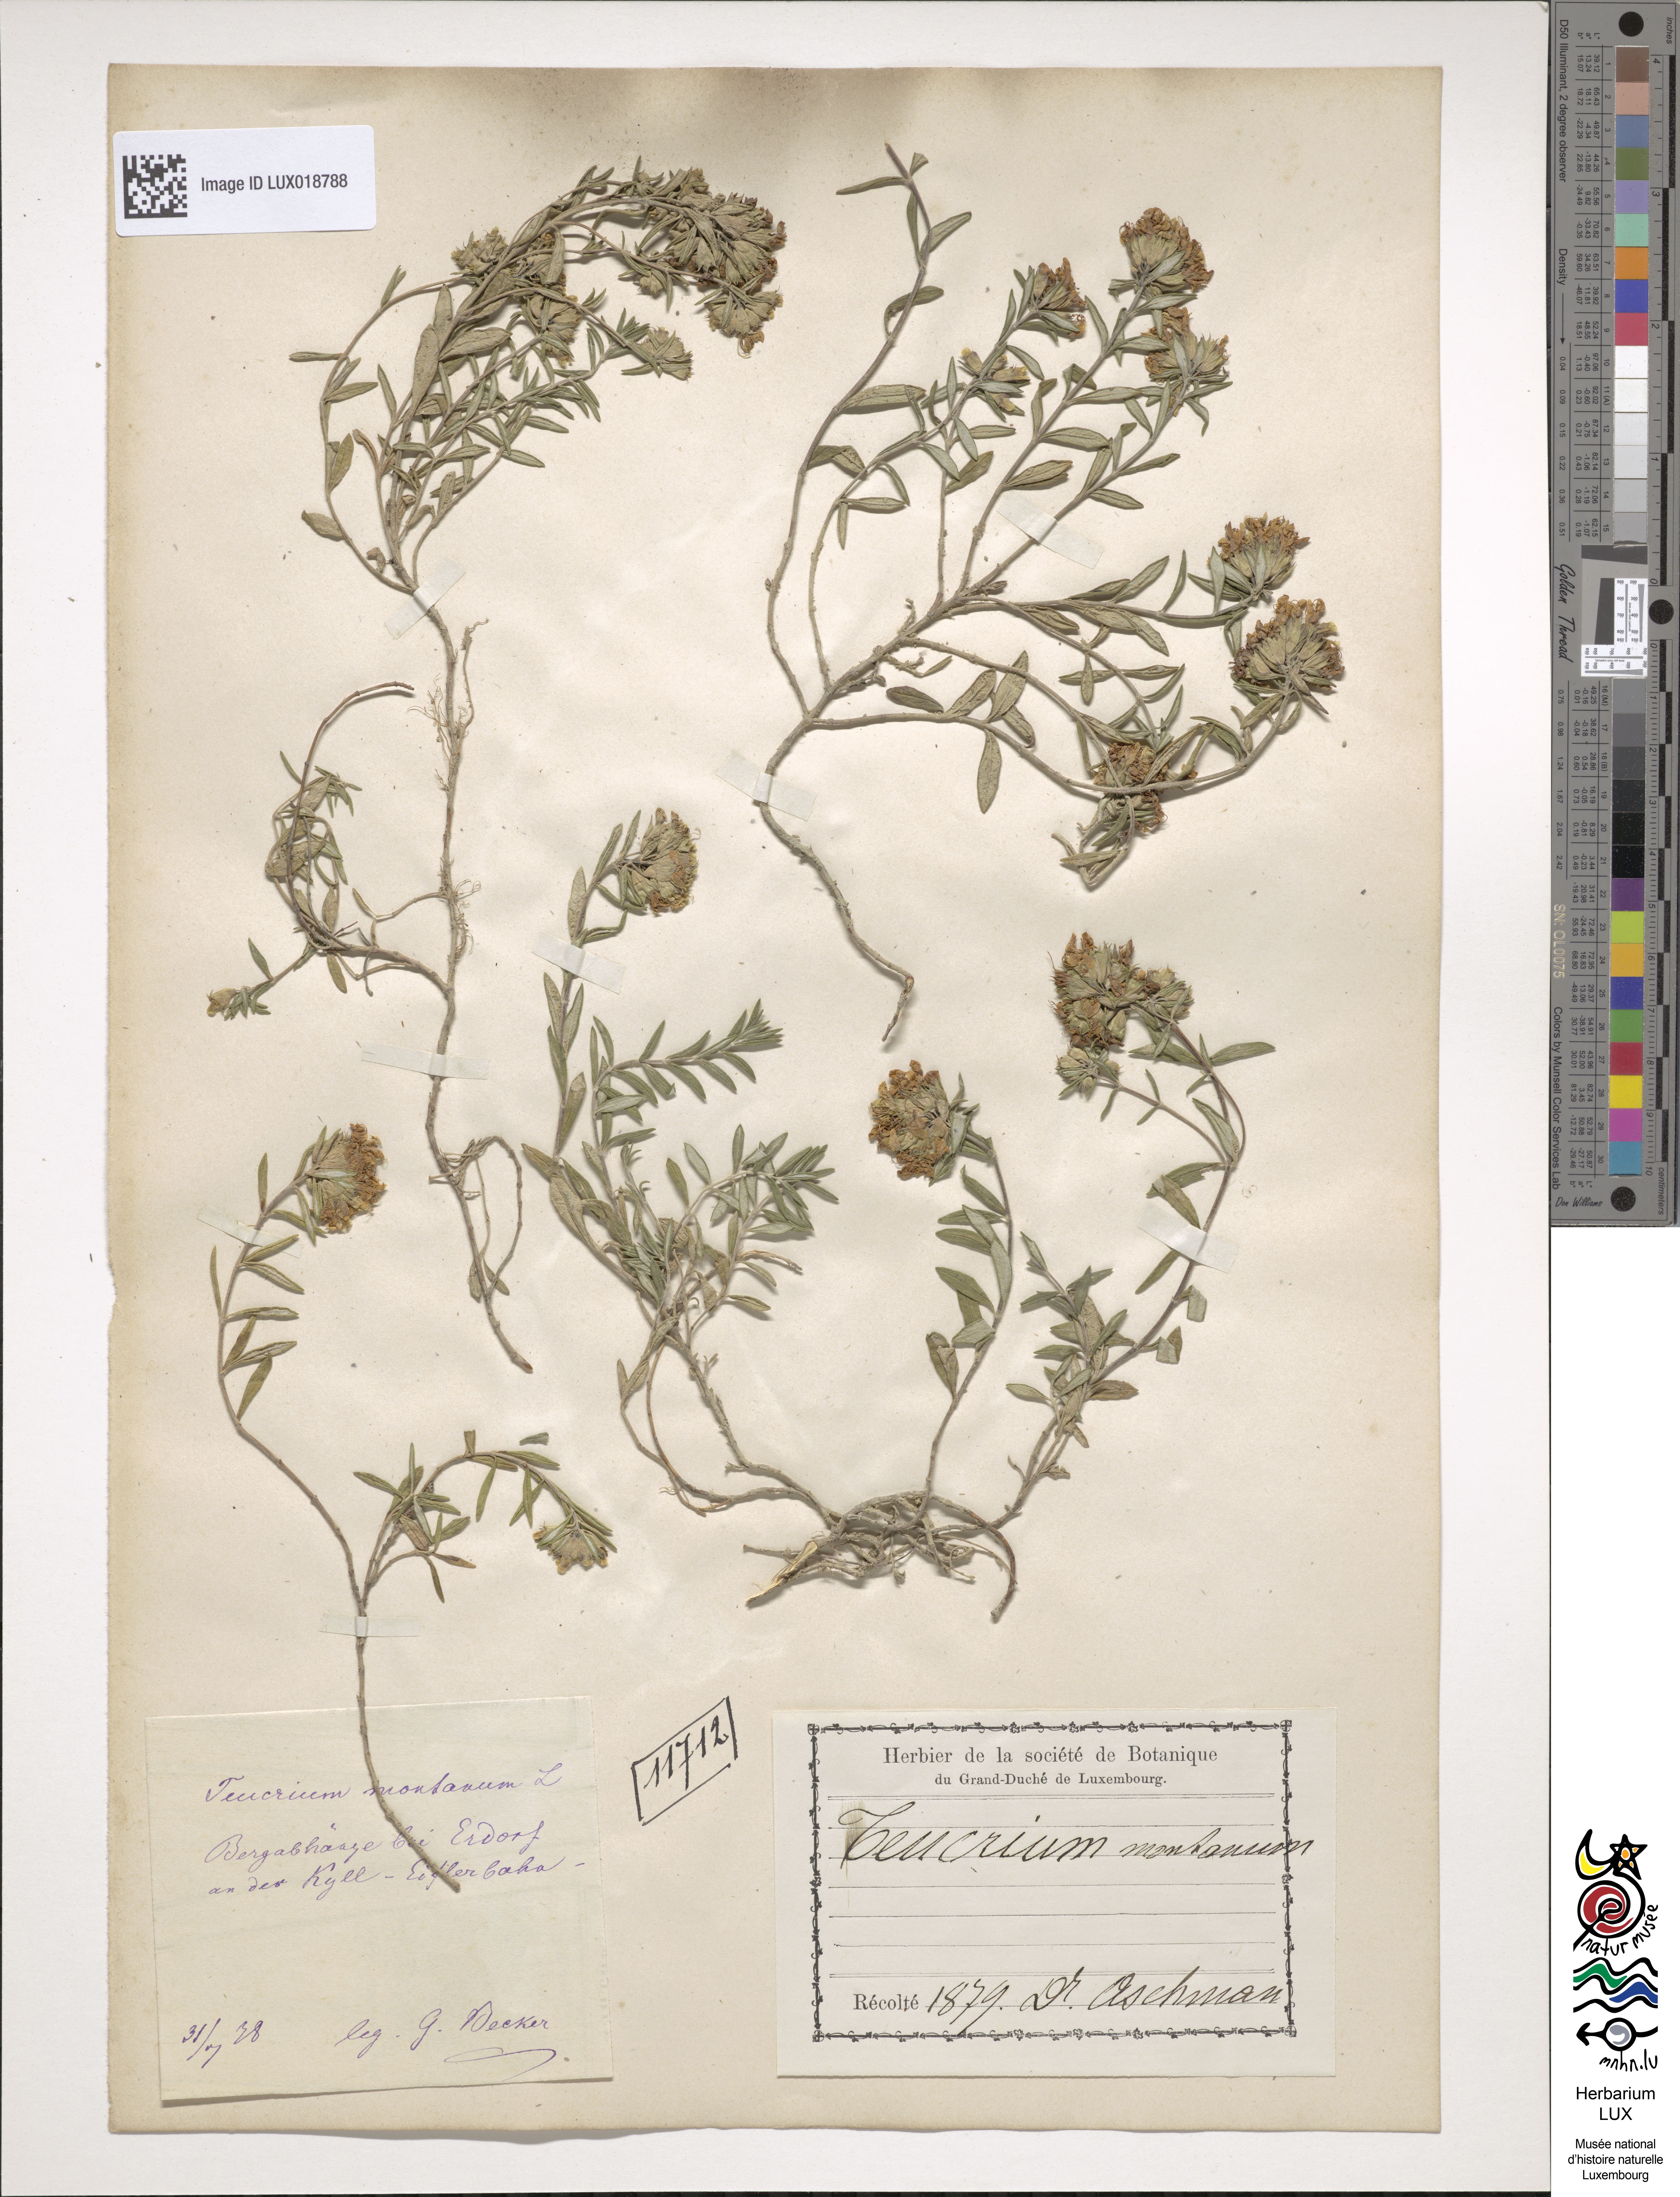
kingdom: Plantae
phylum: Tracheophyta
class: Magnoliopsida
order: Lamiales
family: Lamiaceae
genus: Teucrium
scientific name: Teucrium montanum
